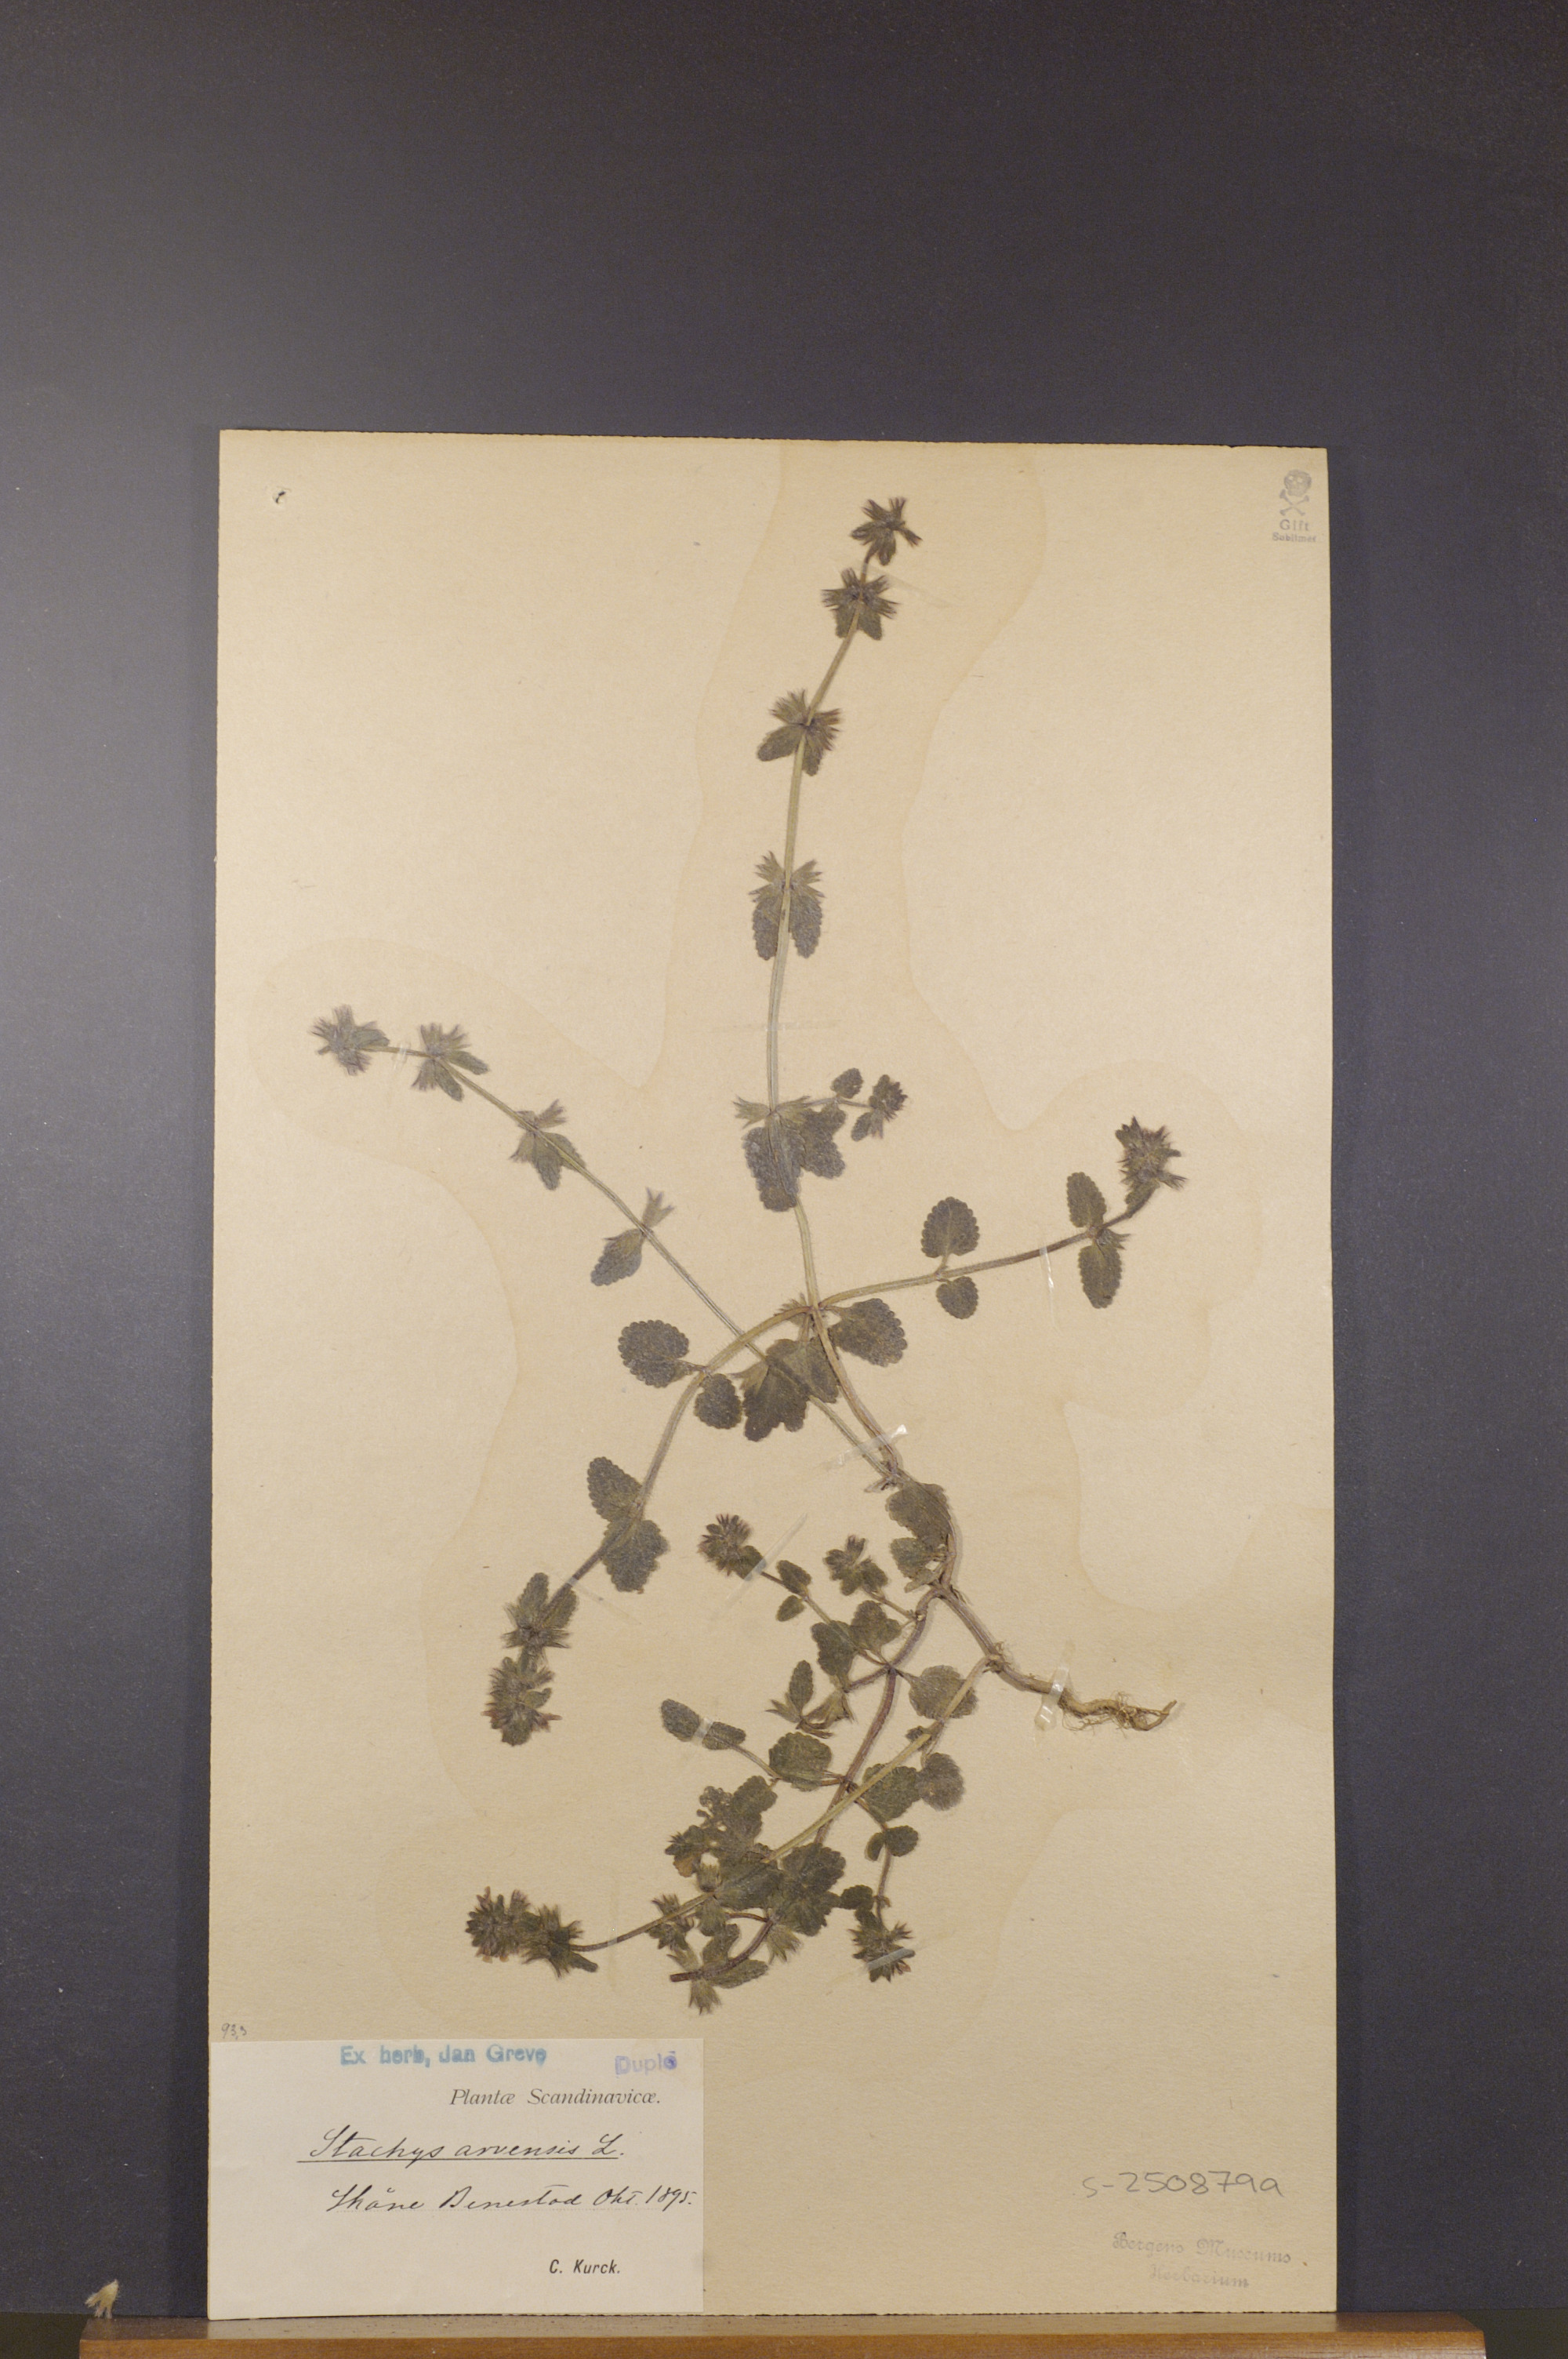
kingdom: Plantae
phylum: Tracheophyta
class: Magnoliopsida
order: Lamiales
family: Lamiaceae
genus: Stachys
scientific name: Stachys arvensis
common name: Field woundwort
